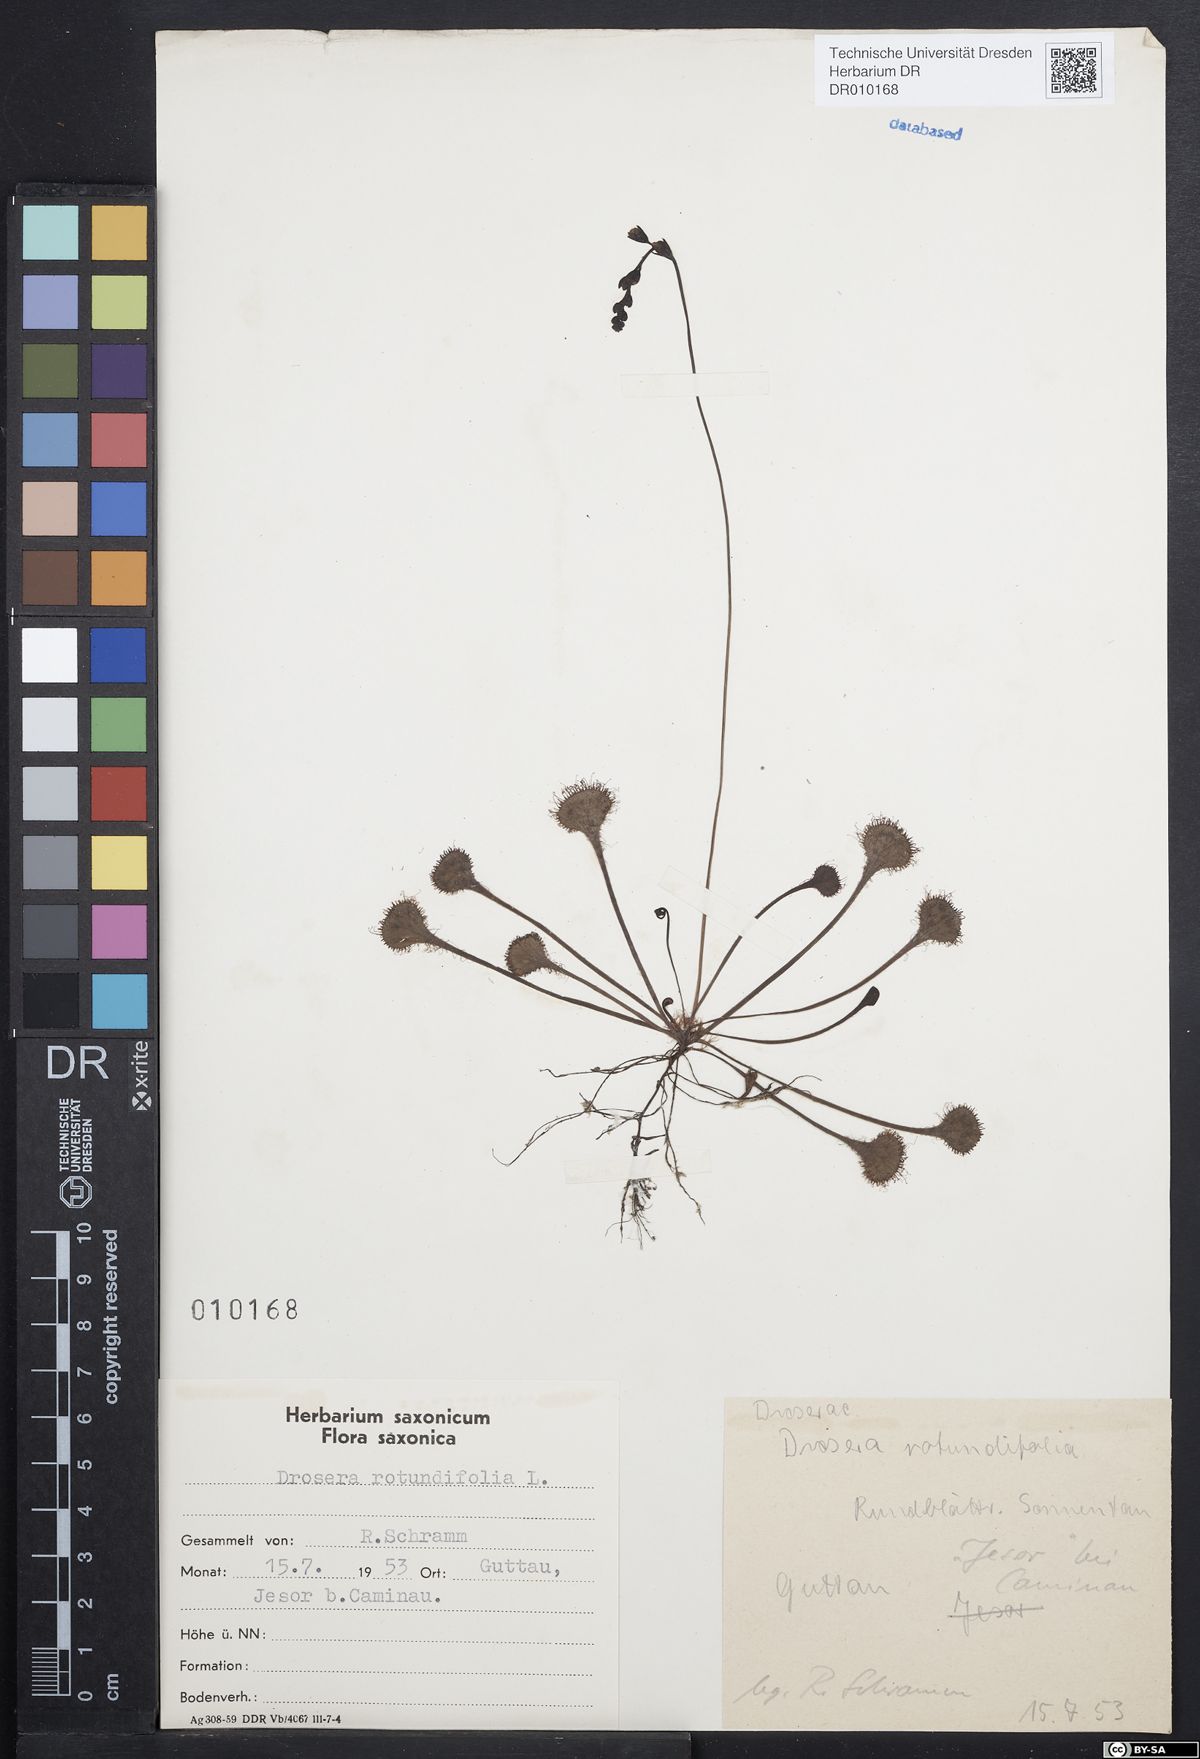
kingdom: Plantae
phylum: Tracheophyta
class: Magnoliopsida
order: Caryophyllales
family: Droseraceae
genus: Drosera
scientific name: Drosera rotundifolia
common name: Round-leaved sundew
